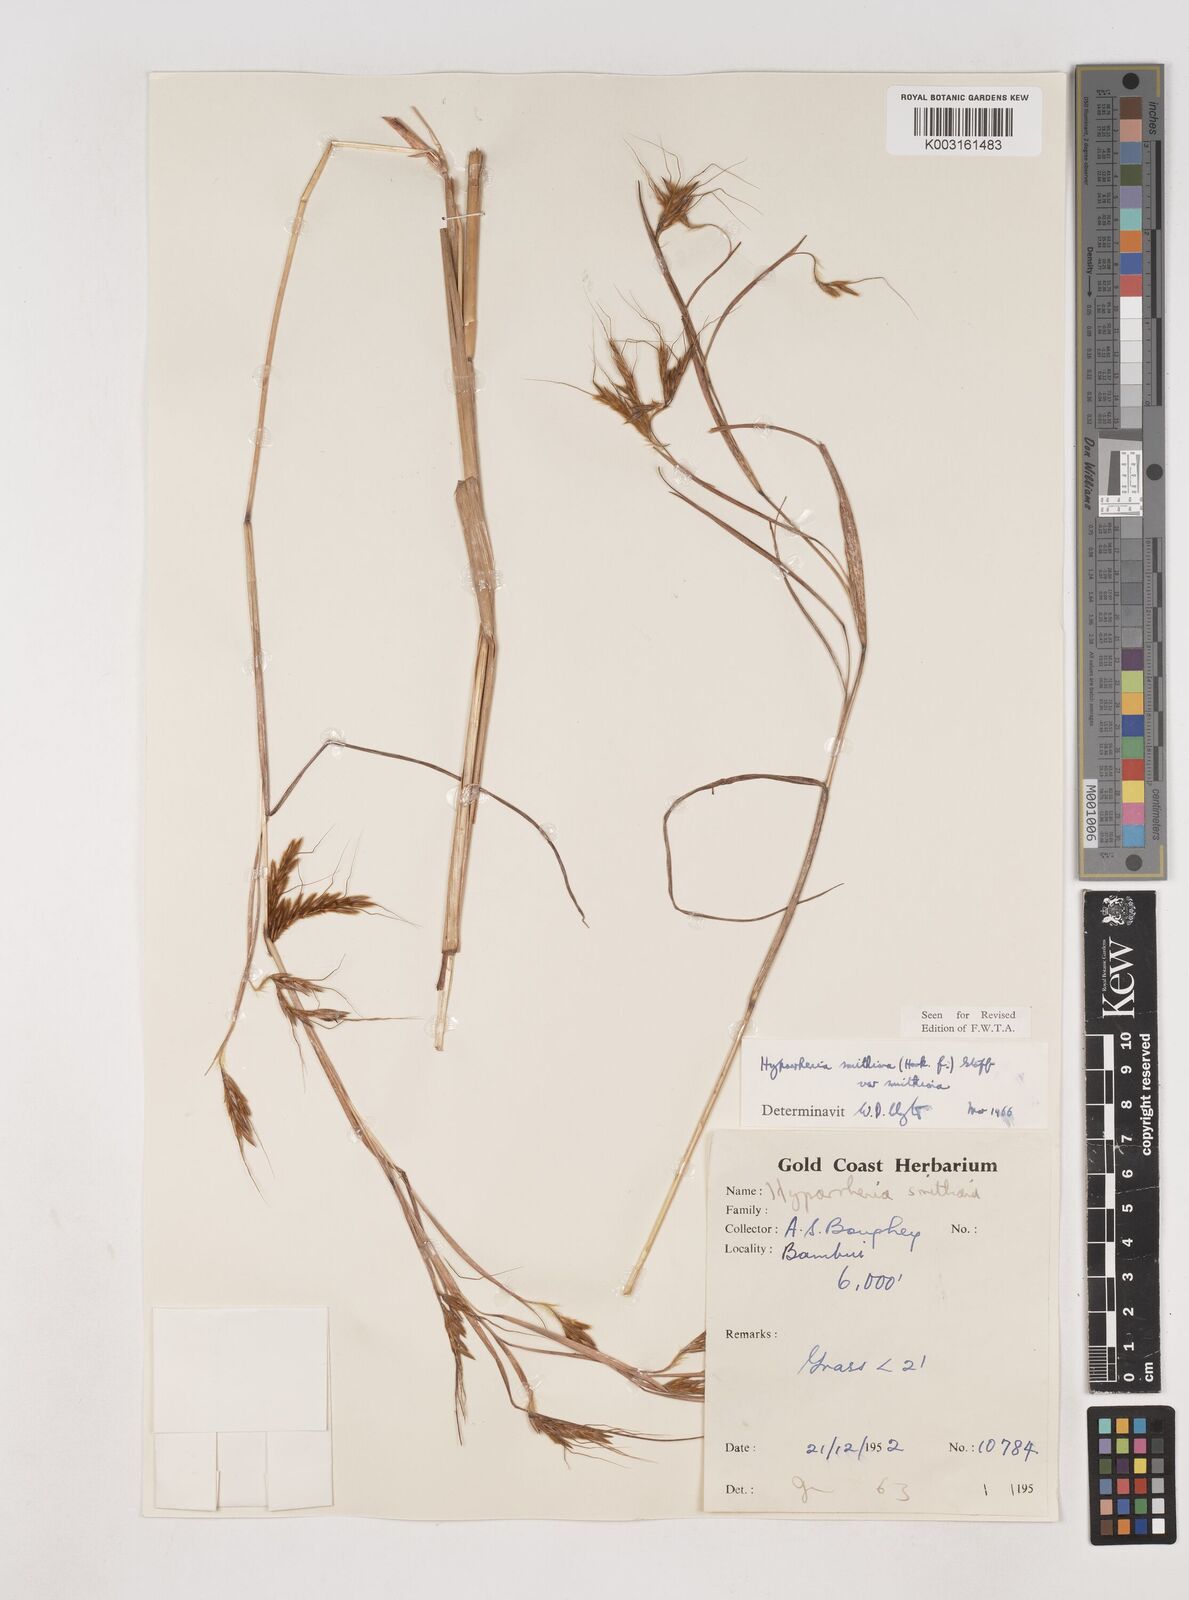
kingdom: Plantae
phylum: Tracheophyta
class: Liliopsida
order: Poales
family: Poaceae
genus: Hyparrhenia
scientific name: Hyparrhenia smithiana
